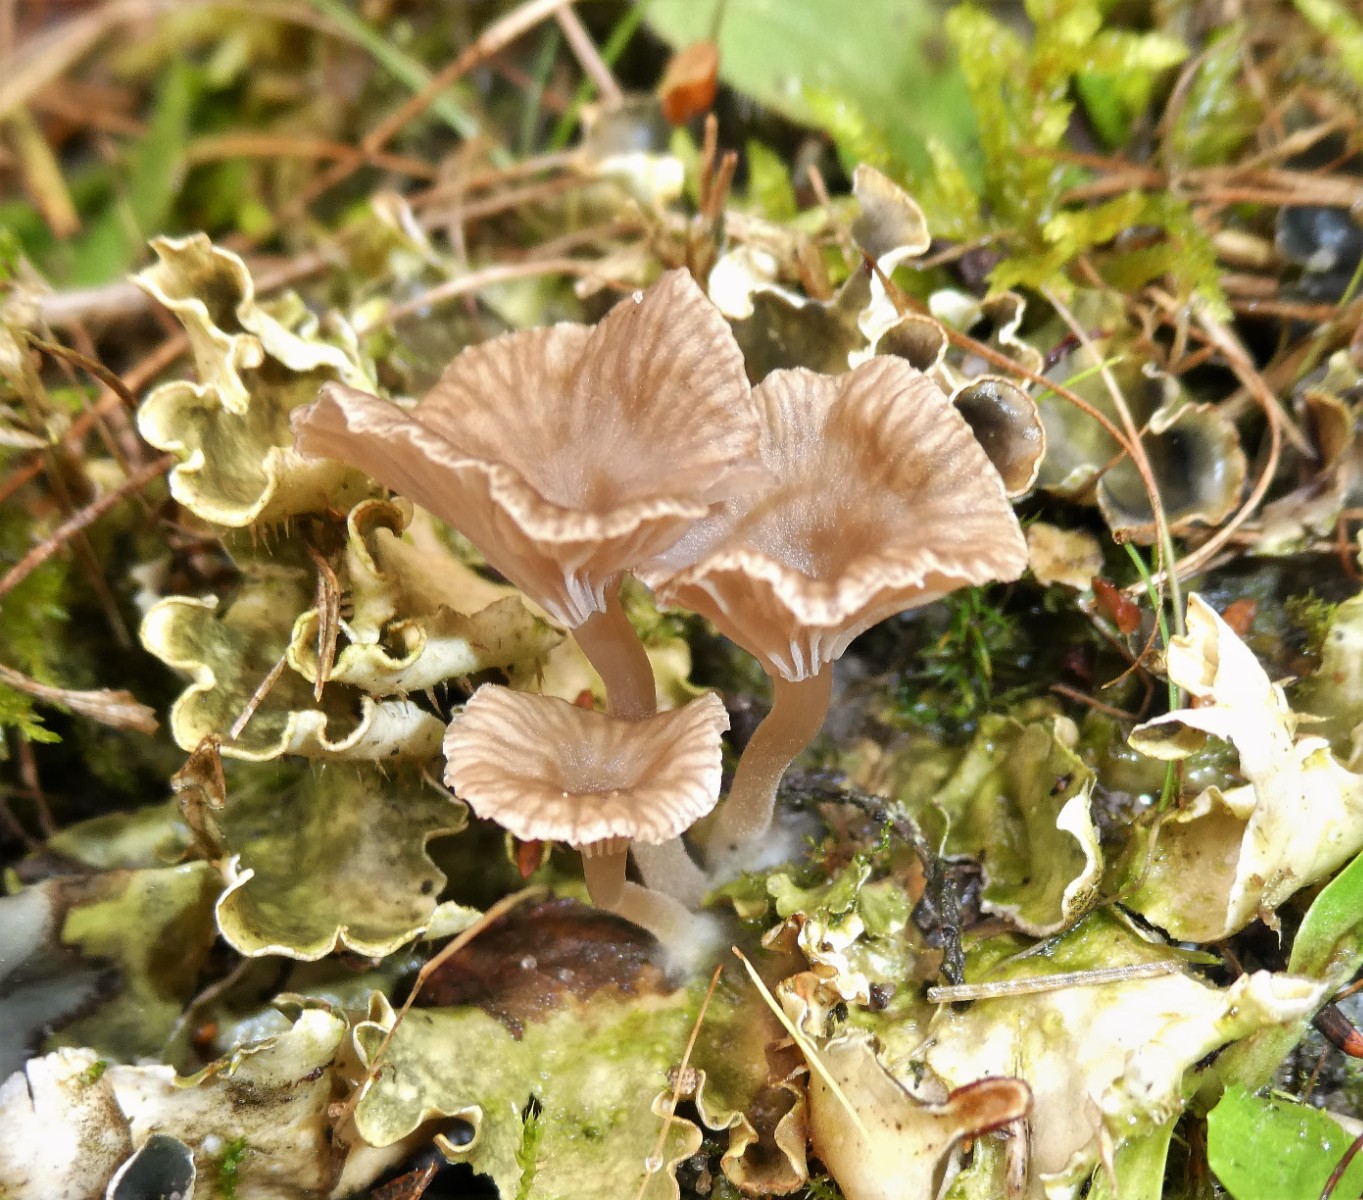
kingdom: Fungi
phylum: Basidiomycota
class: Agaricomycetes
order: Agaricales
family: Hygrophoraceae
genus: Arrhenia
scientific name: Arrhenia peltigerina
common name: skjoldlav-fontænehat
